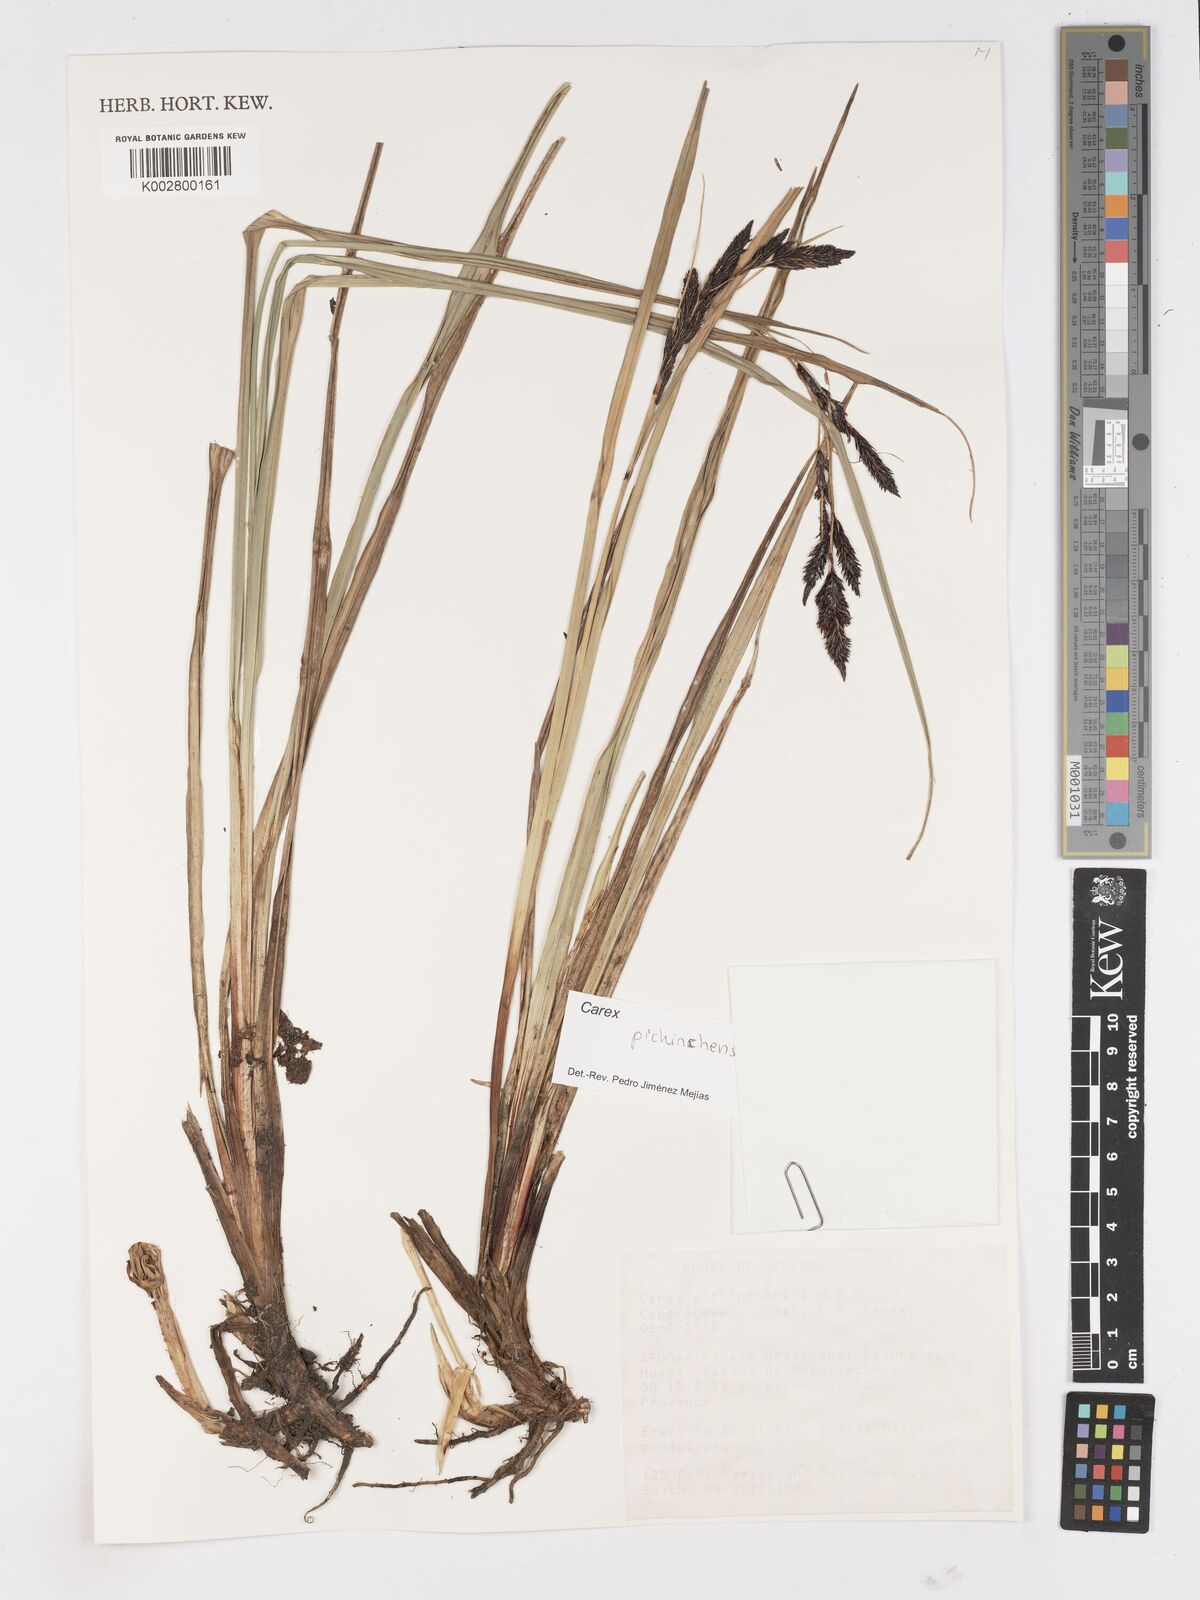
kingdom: Plantae
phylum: Tracheophyta
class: Liliopsida
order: Poales
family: Cyperaceae
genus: Carex
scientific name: Carex pichinchensis
